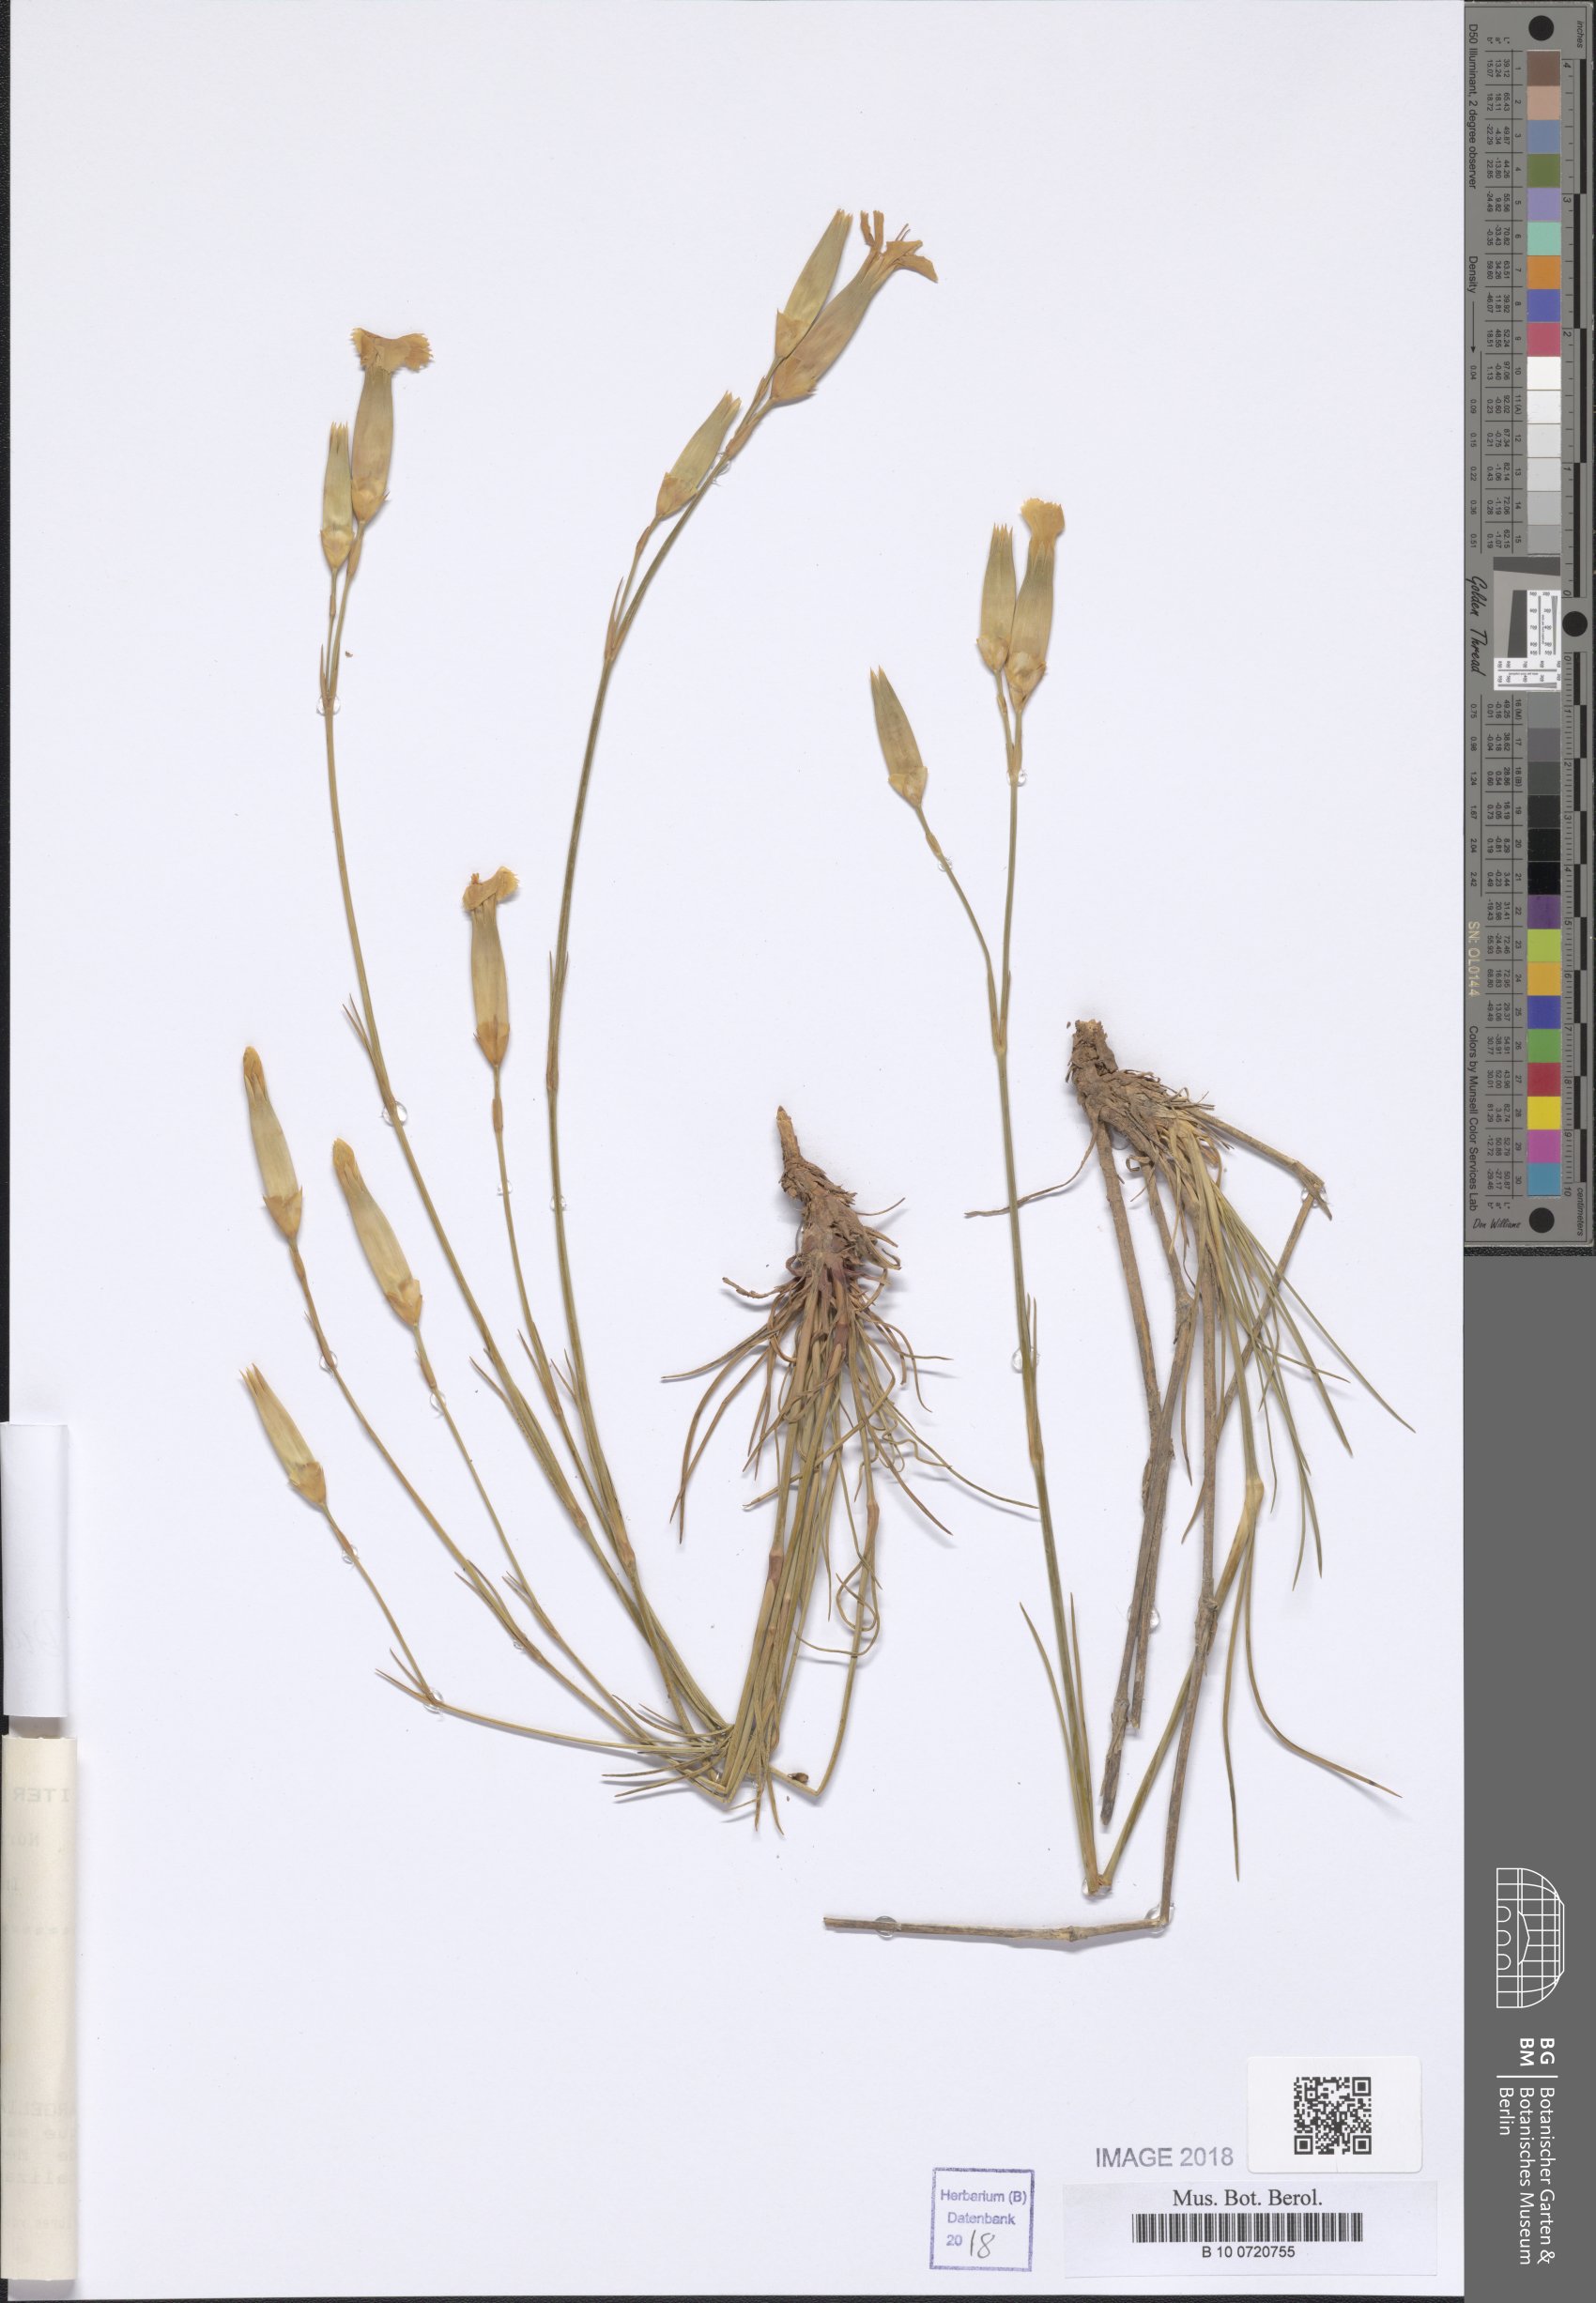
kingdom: Plantae
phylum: Tracheophyta
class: Magnoliopsida
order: Caryophyllales
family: Caryophyllaceae
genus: Dianthus
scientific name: Dianthus virgineus
